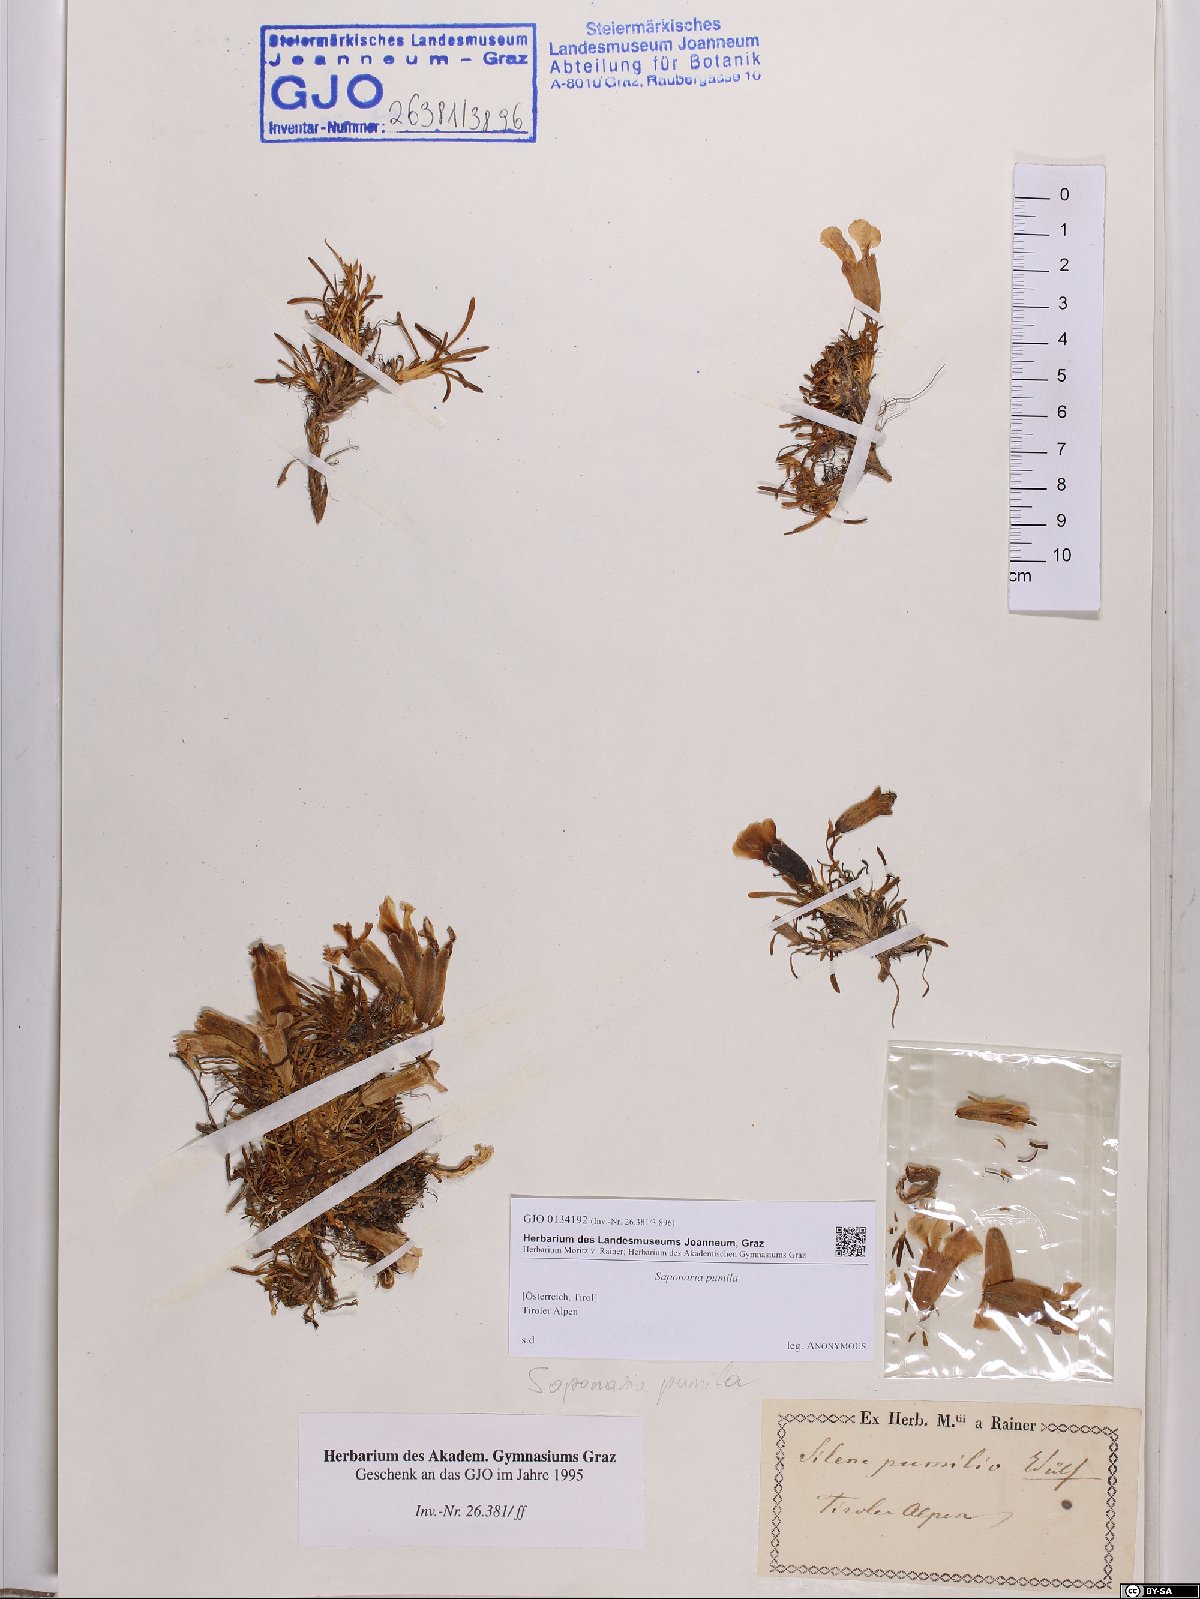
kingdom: Plantae
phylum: Tracheophyta
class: Magnoliopsida
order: Caryophyllales
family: Caryophyllaceae
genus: Saponaria
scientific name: Saponaria pumila
